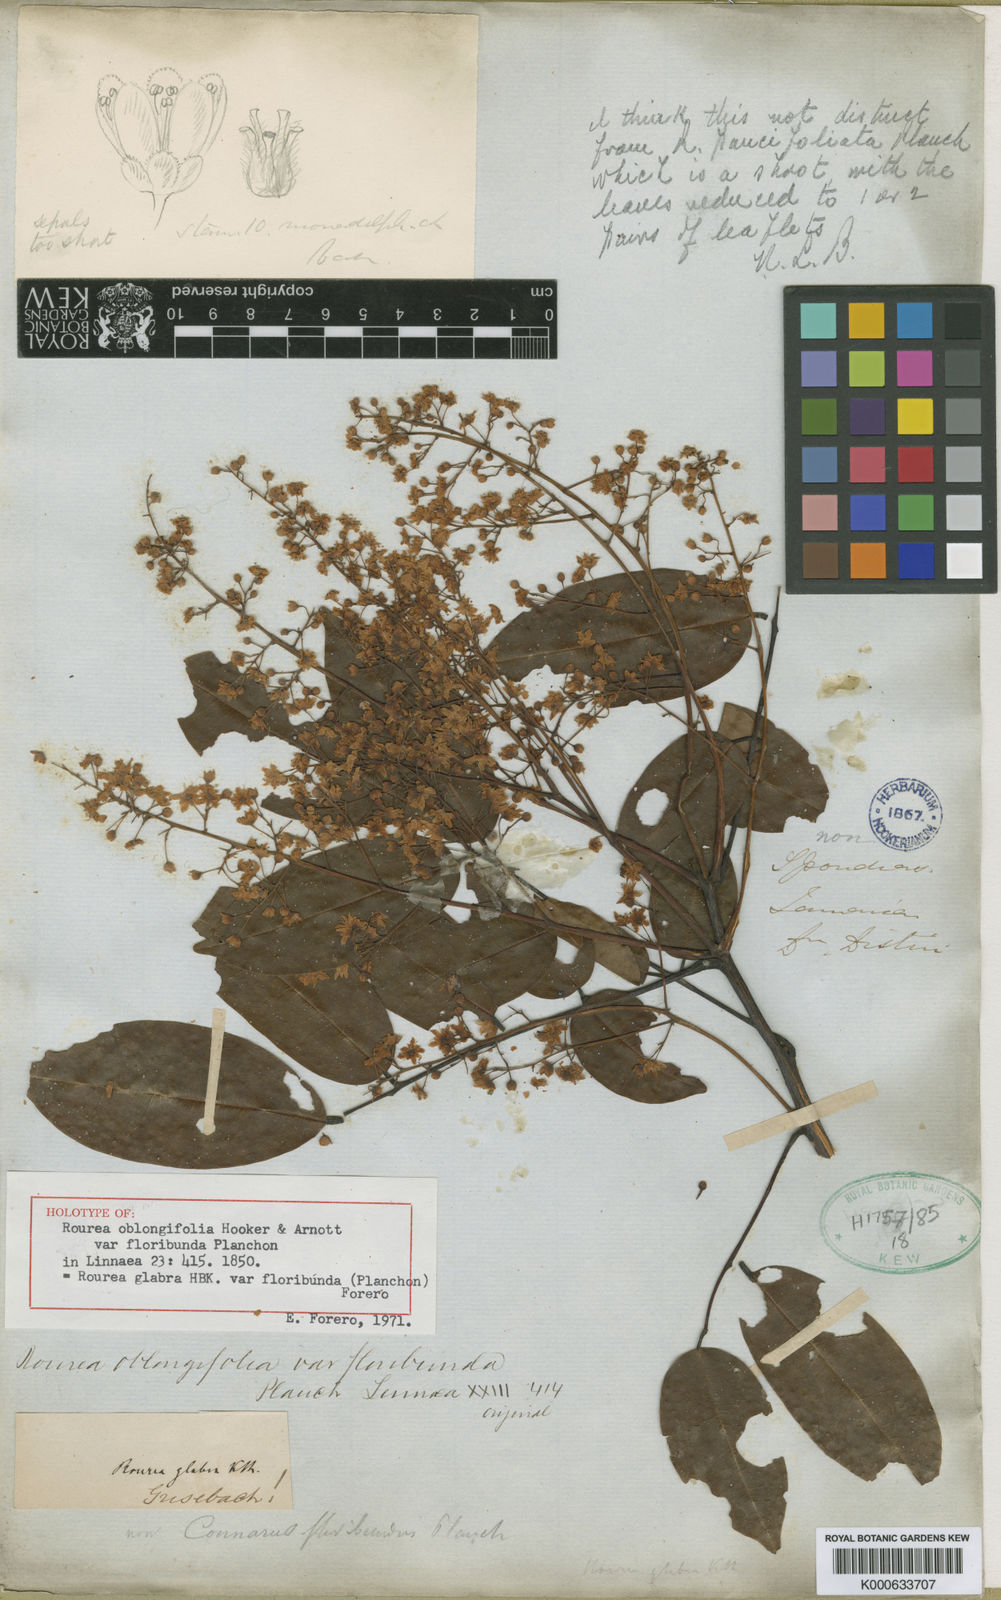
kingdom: Plantae
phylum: Tracheophyta
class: Magnoliopsida
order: Oxalidales
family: Connaraceae
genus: Rourea
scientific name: Rourea glabra
